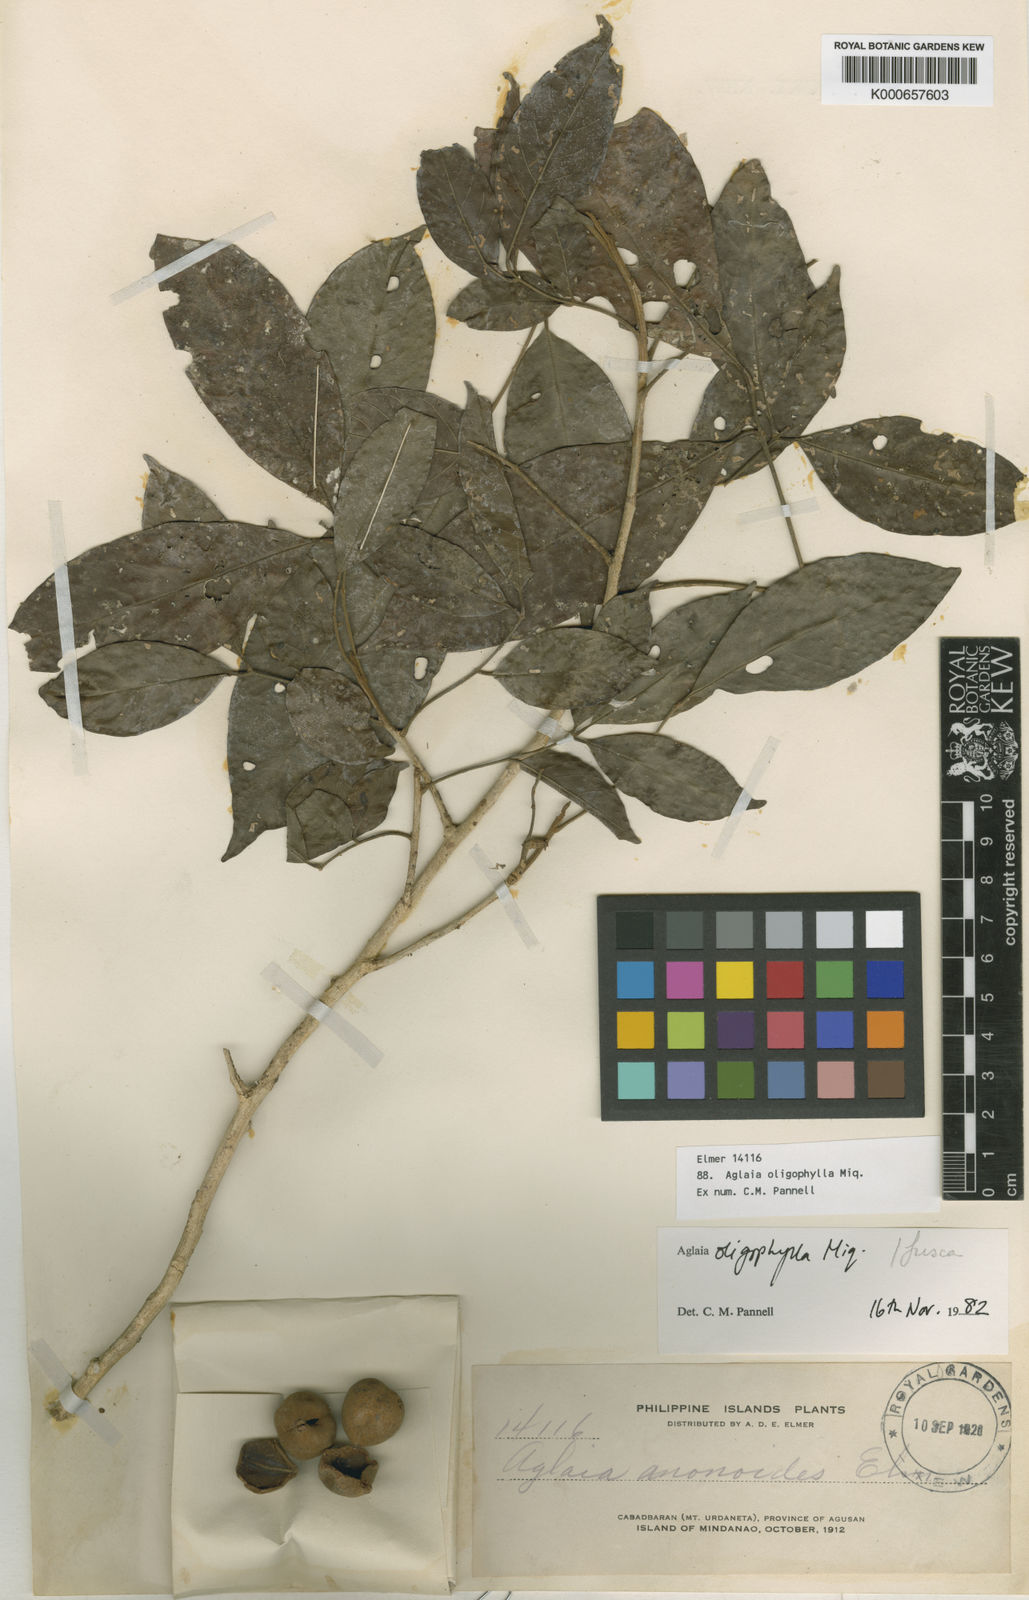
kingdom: Plantae
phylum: Tracheophyta
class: Magnoliopsida
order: Sapindales
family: Meliaceae
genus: Aglaia
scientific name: Aglaia oligophylla
